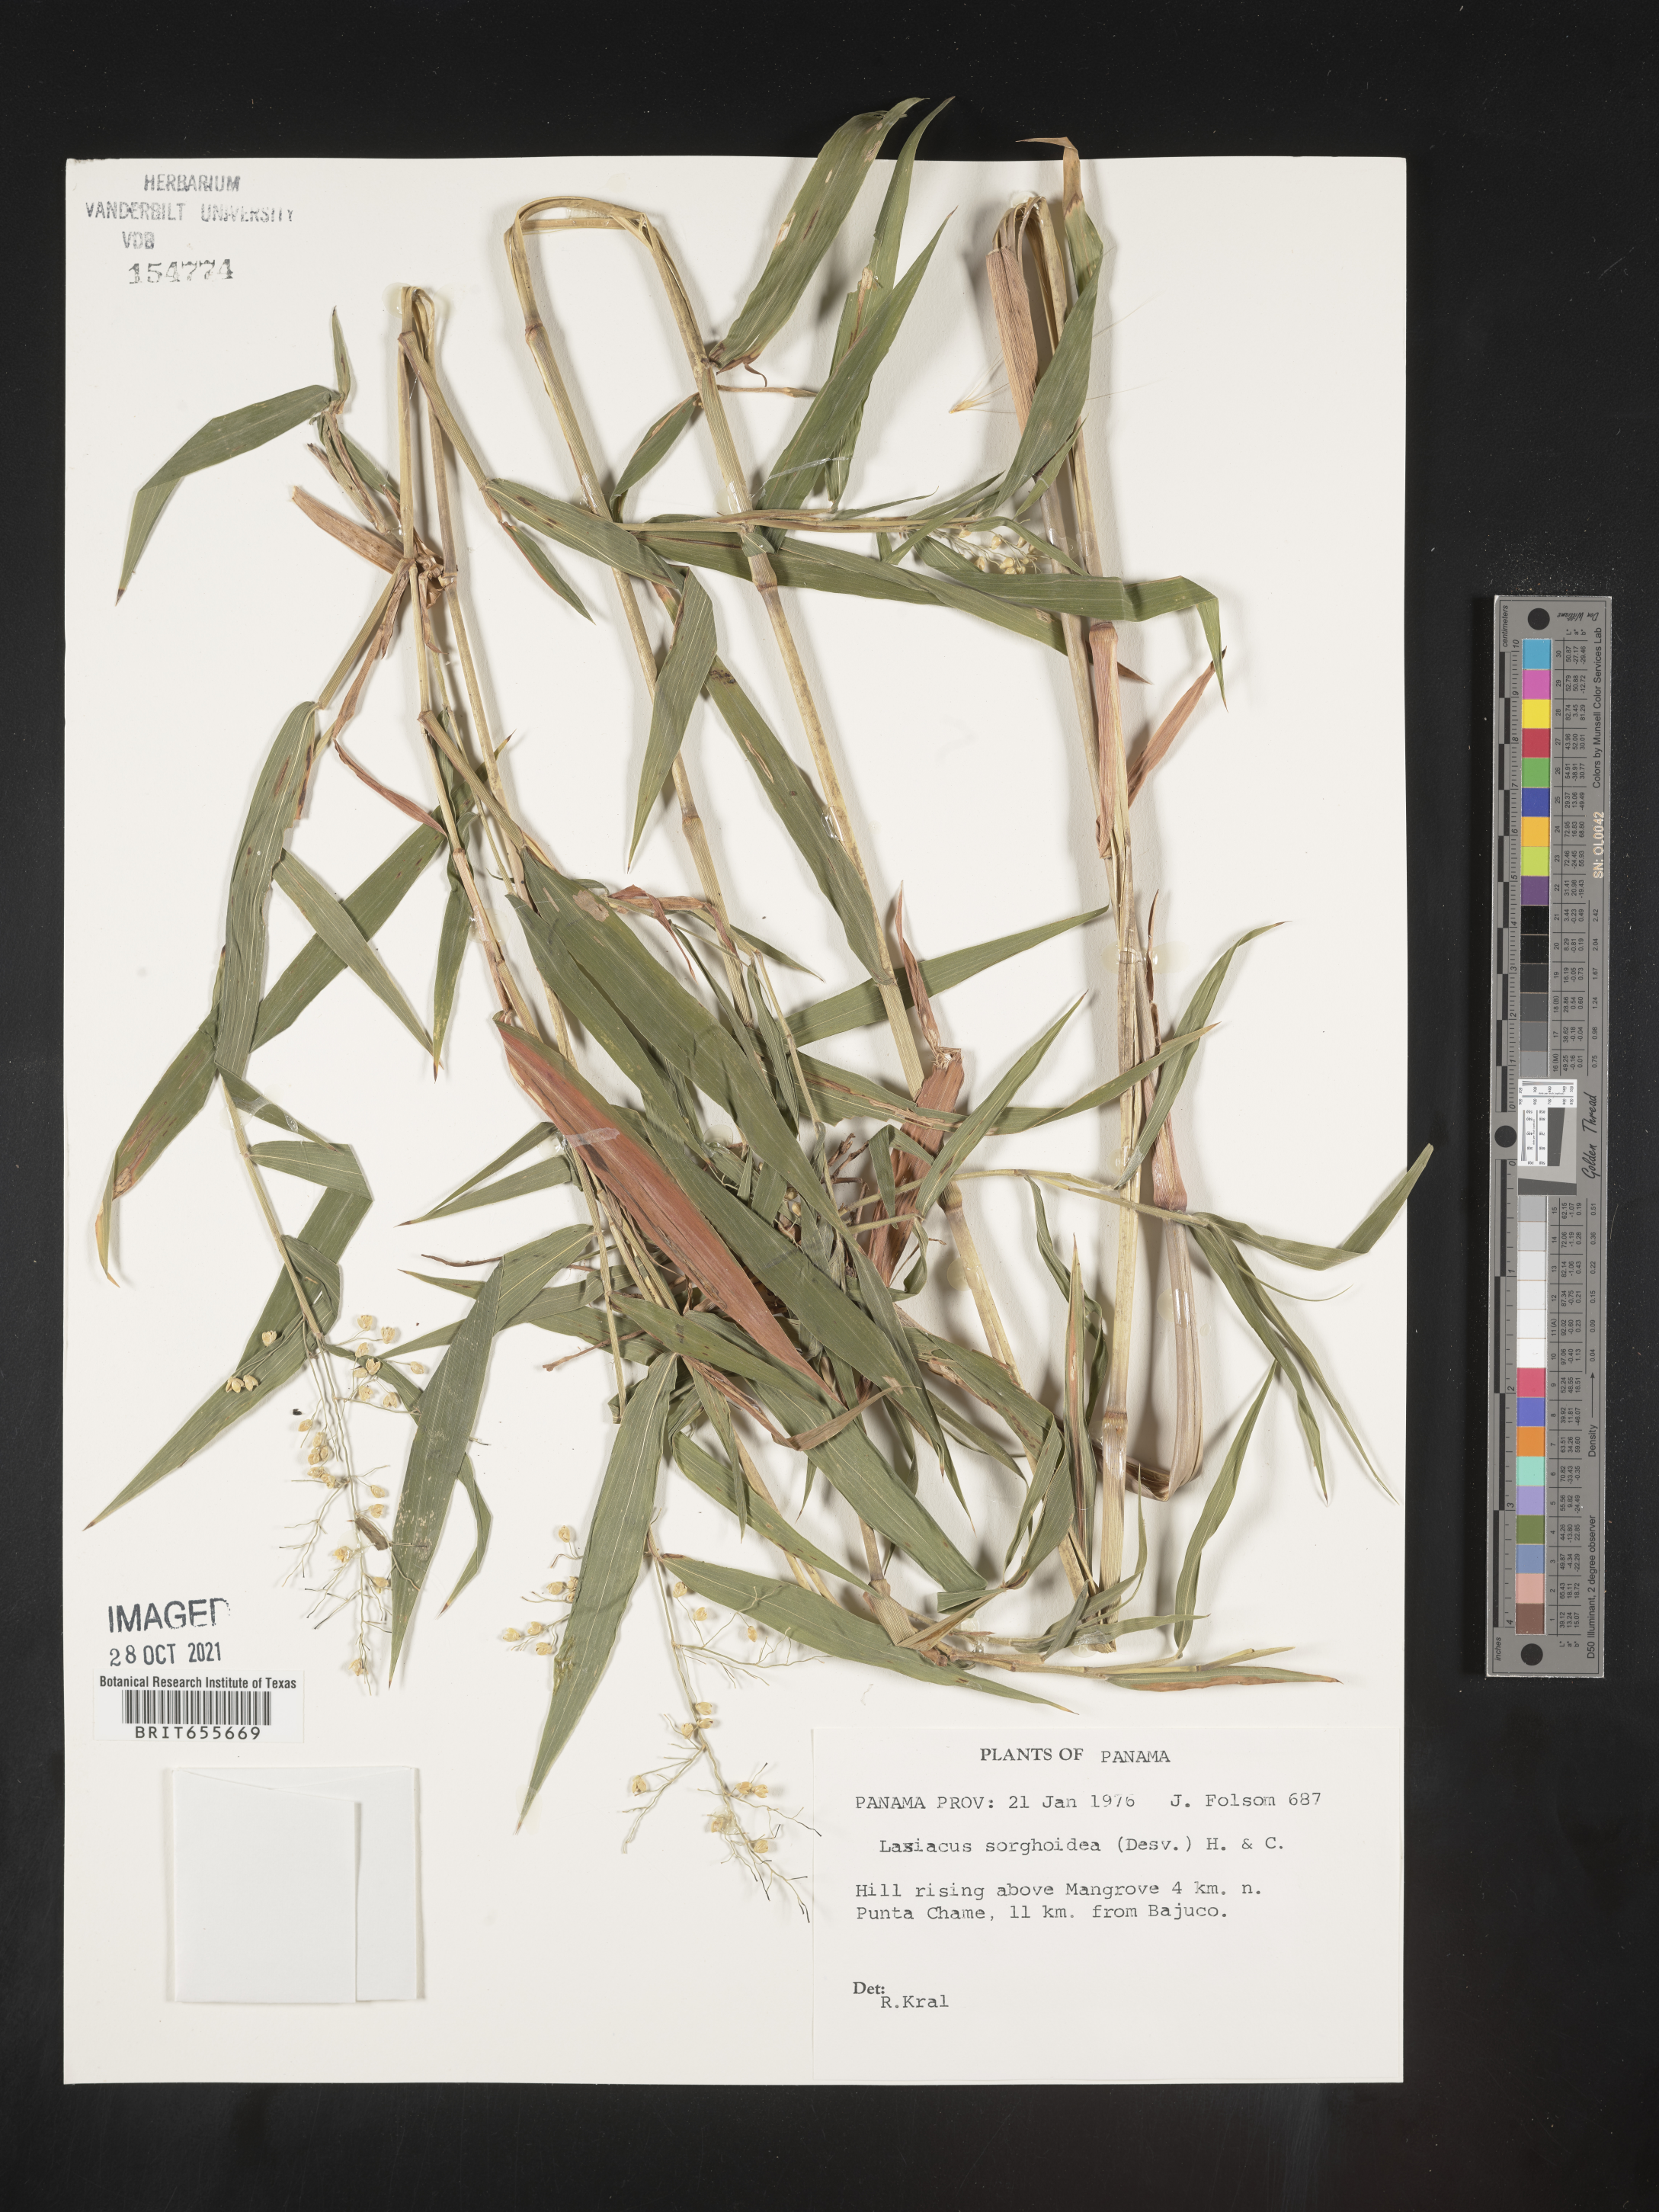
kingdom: Plantae
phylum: Tracheophyta
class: Liliopsida
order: Poales
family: Poaceae
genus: Lasiacis
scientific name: Lasiacis
